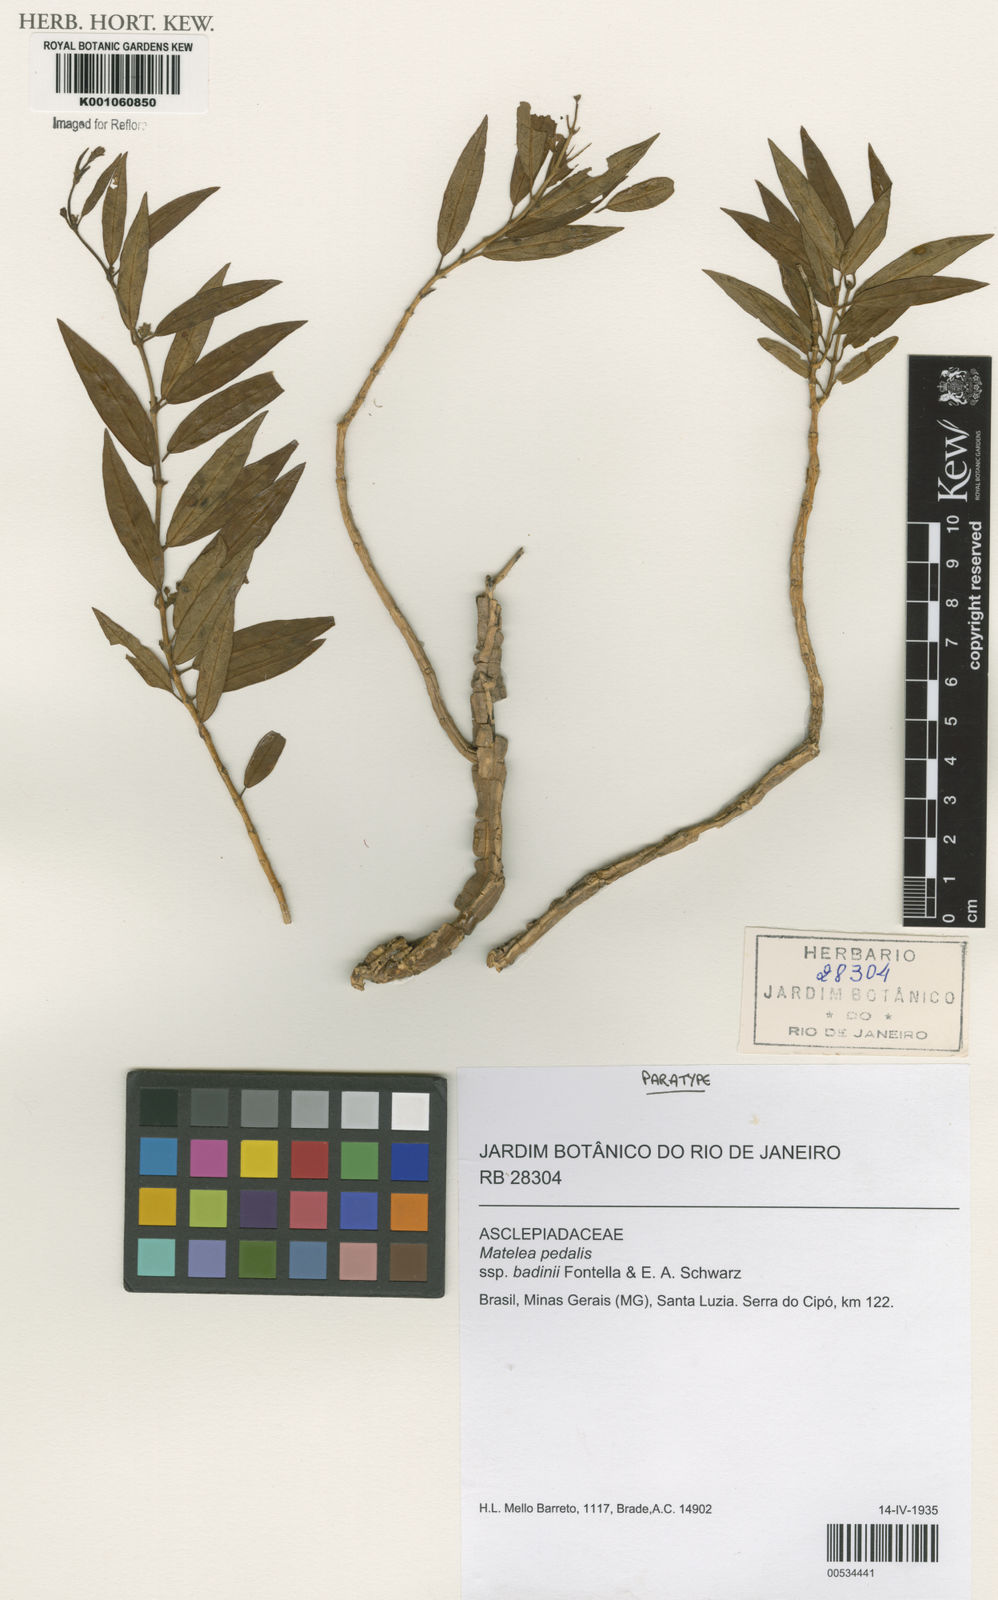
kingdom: Plantae
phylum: Tracheophyta
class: Magnoliopsida
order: Gentianales
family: Apocynaceae
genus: Matelea
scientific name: Matelea pedalis
